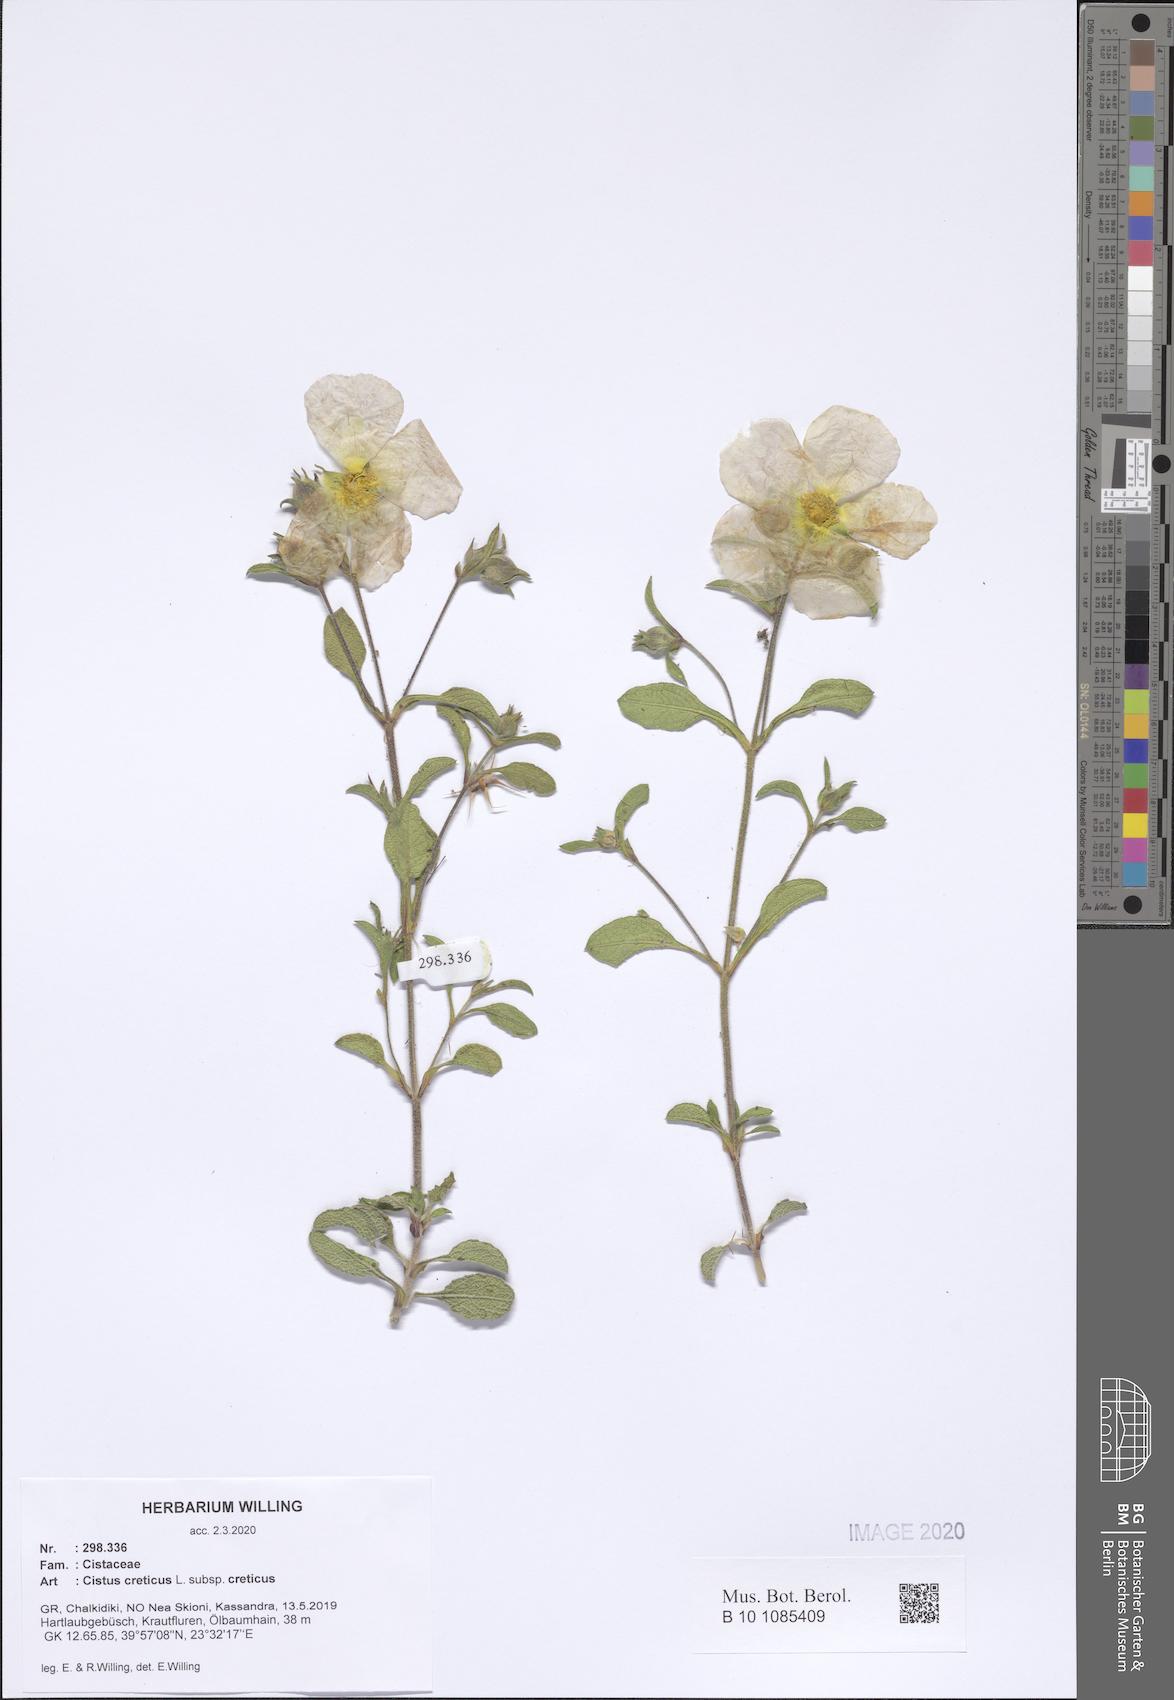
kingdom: Plantae
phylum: Tracheophyta
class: Magnoliopsida
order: Malvales
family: Cistaceae
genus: Cistus
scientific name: Cistus creticus
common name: Cretan rockrose
